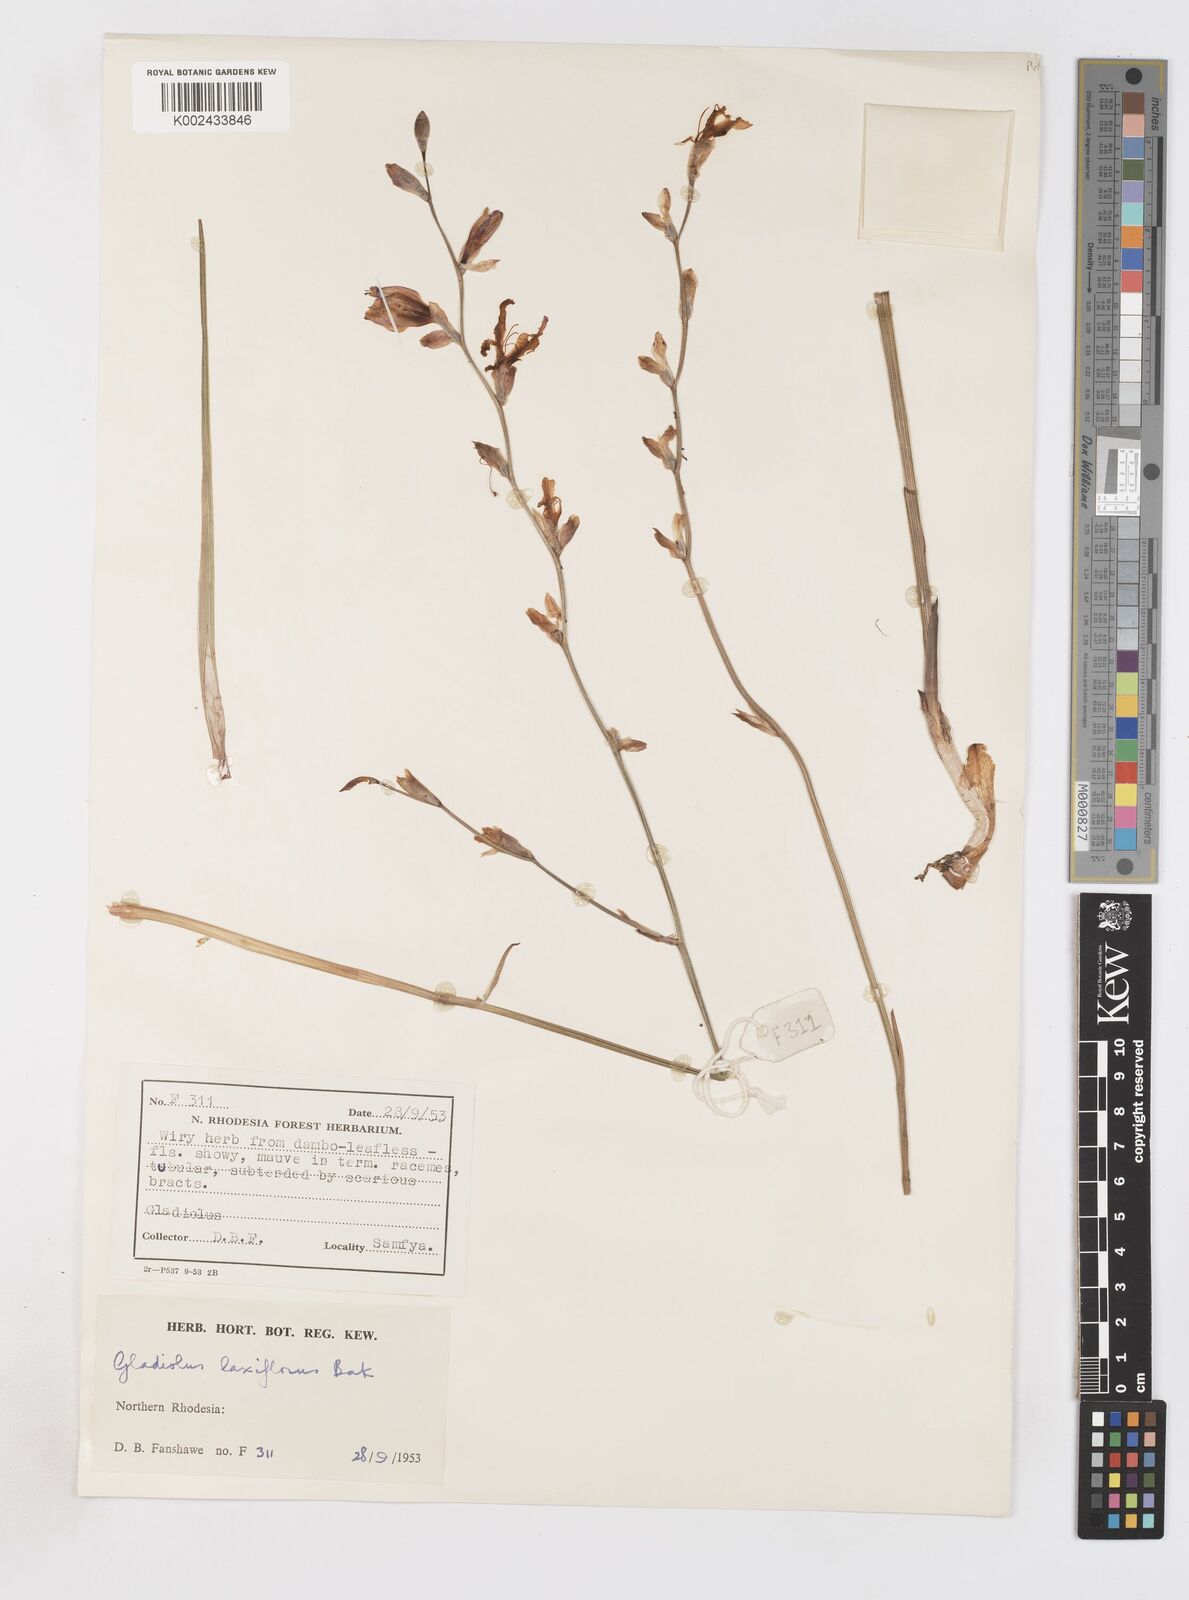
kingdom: Plantae
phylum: Tracheophyta
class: Liliopsida
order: Asparagales
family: Iridaceae
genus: Gladiolus
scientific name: Gladiolus laxiflorus
